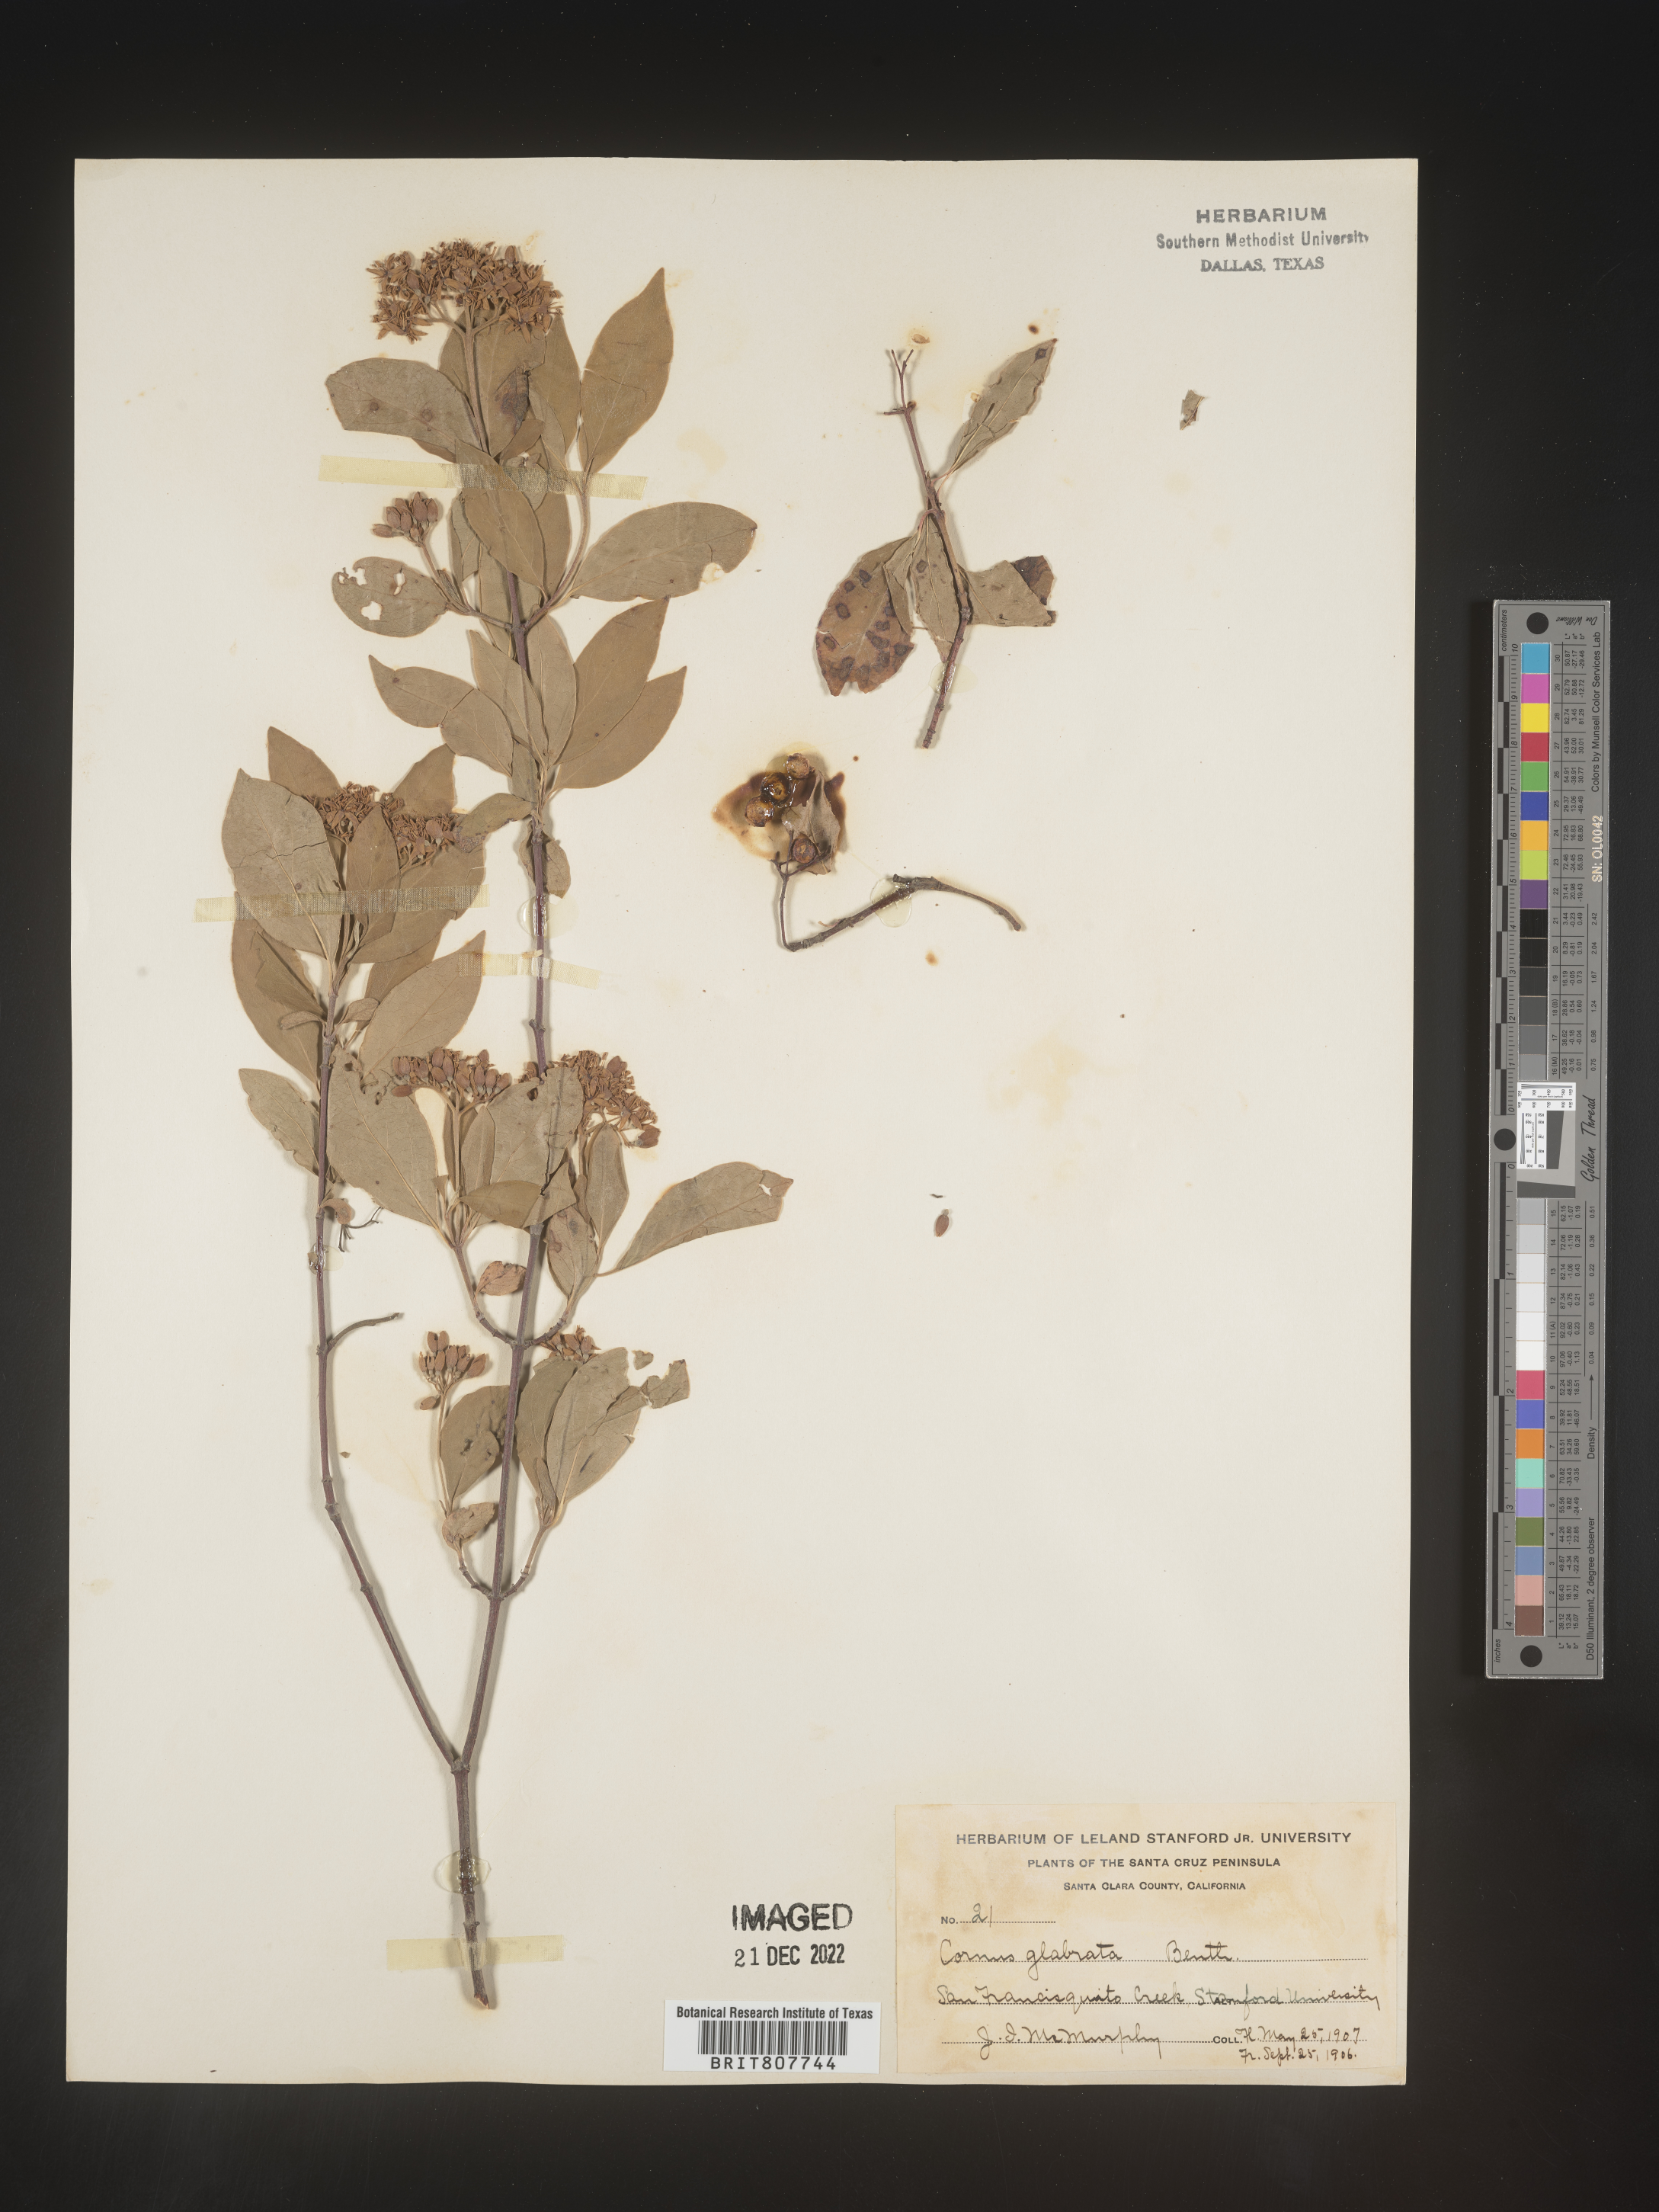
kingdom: Plantae
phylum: Tracheophyta
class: Magnoliopsida
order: Cornales
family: Cornaceae
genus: Cornus
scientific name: Cornus glabrata
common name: Smooth dogwood
